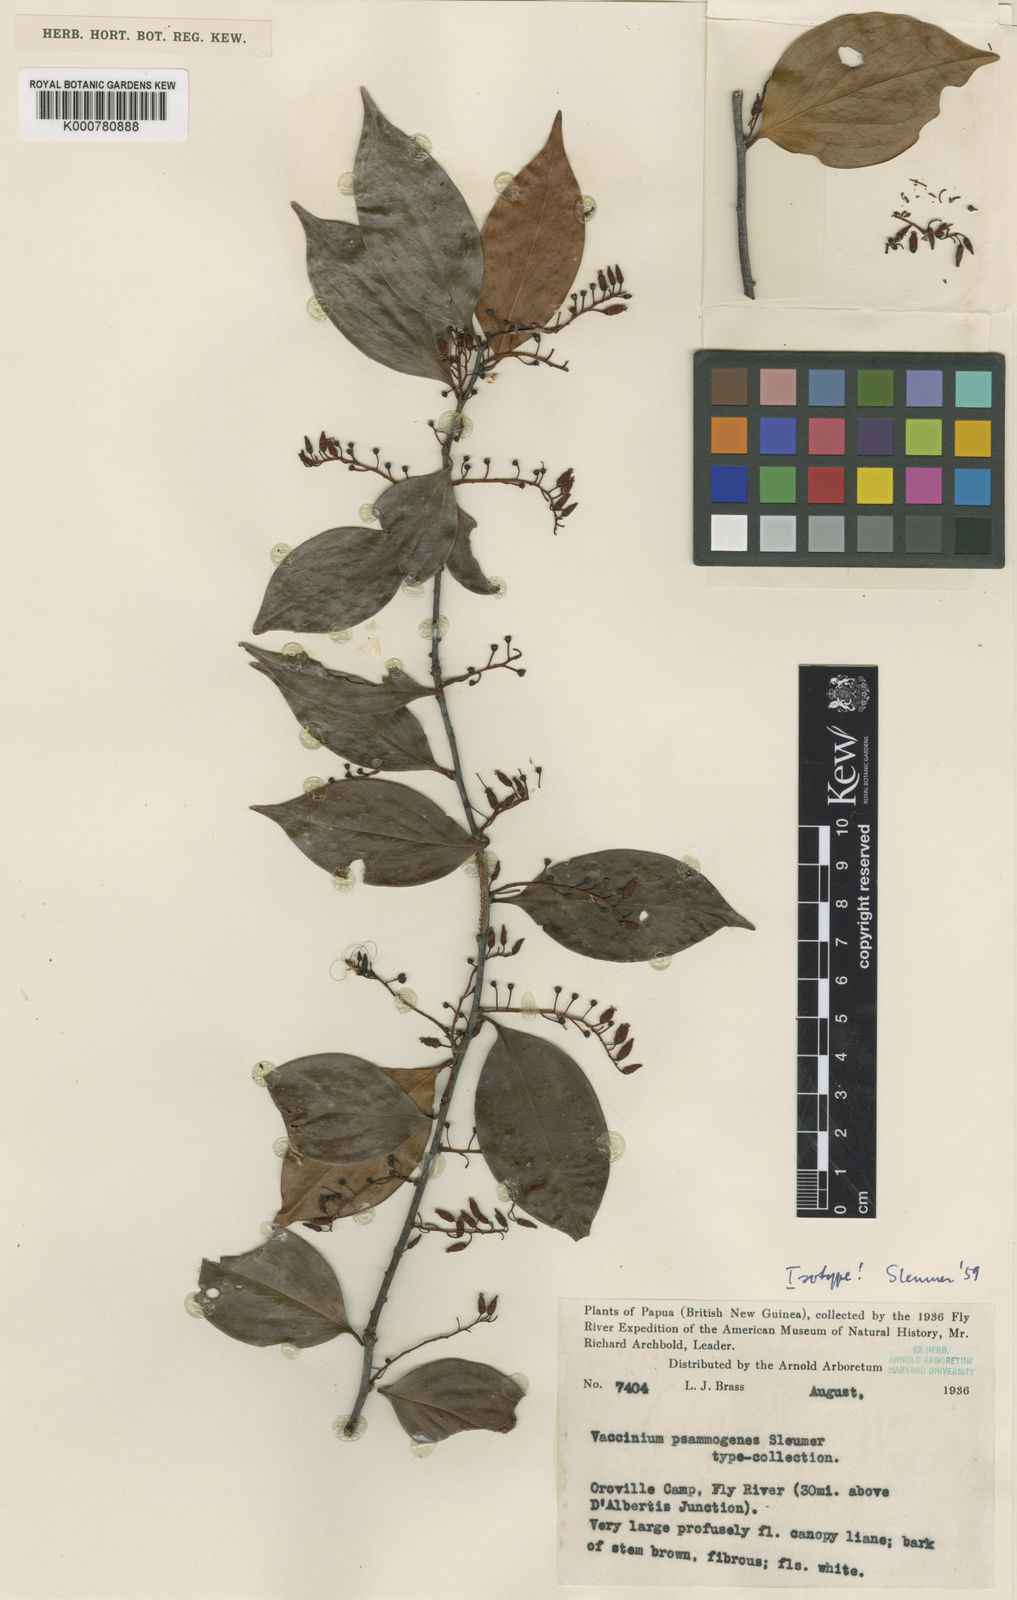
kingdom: Plantae
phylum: Tracheophyta
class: Magnoliopsida
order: Ericales
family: Ericaceae
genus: Vaccinium
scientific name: Vaccinium psammogenes
